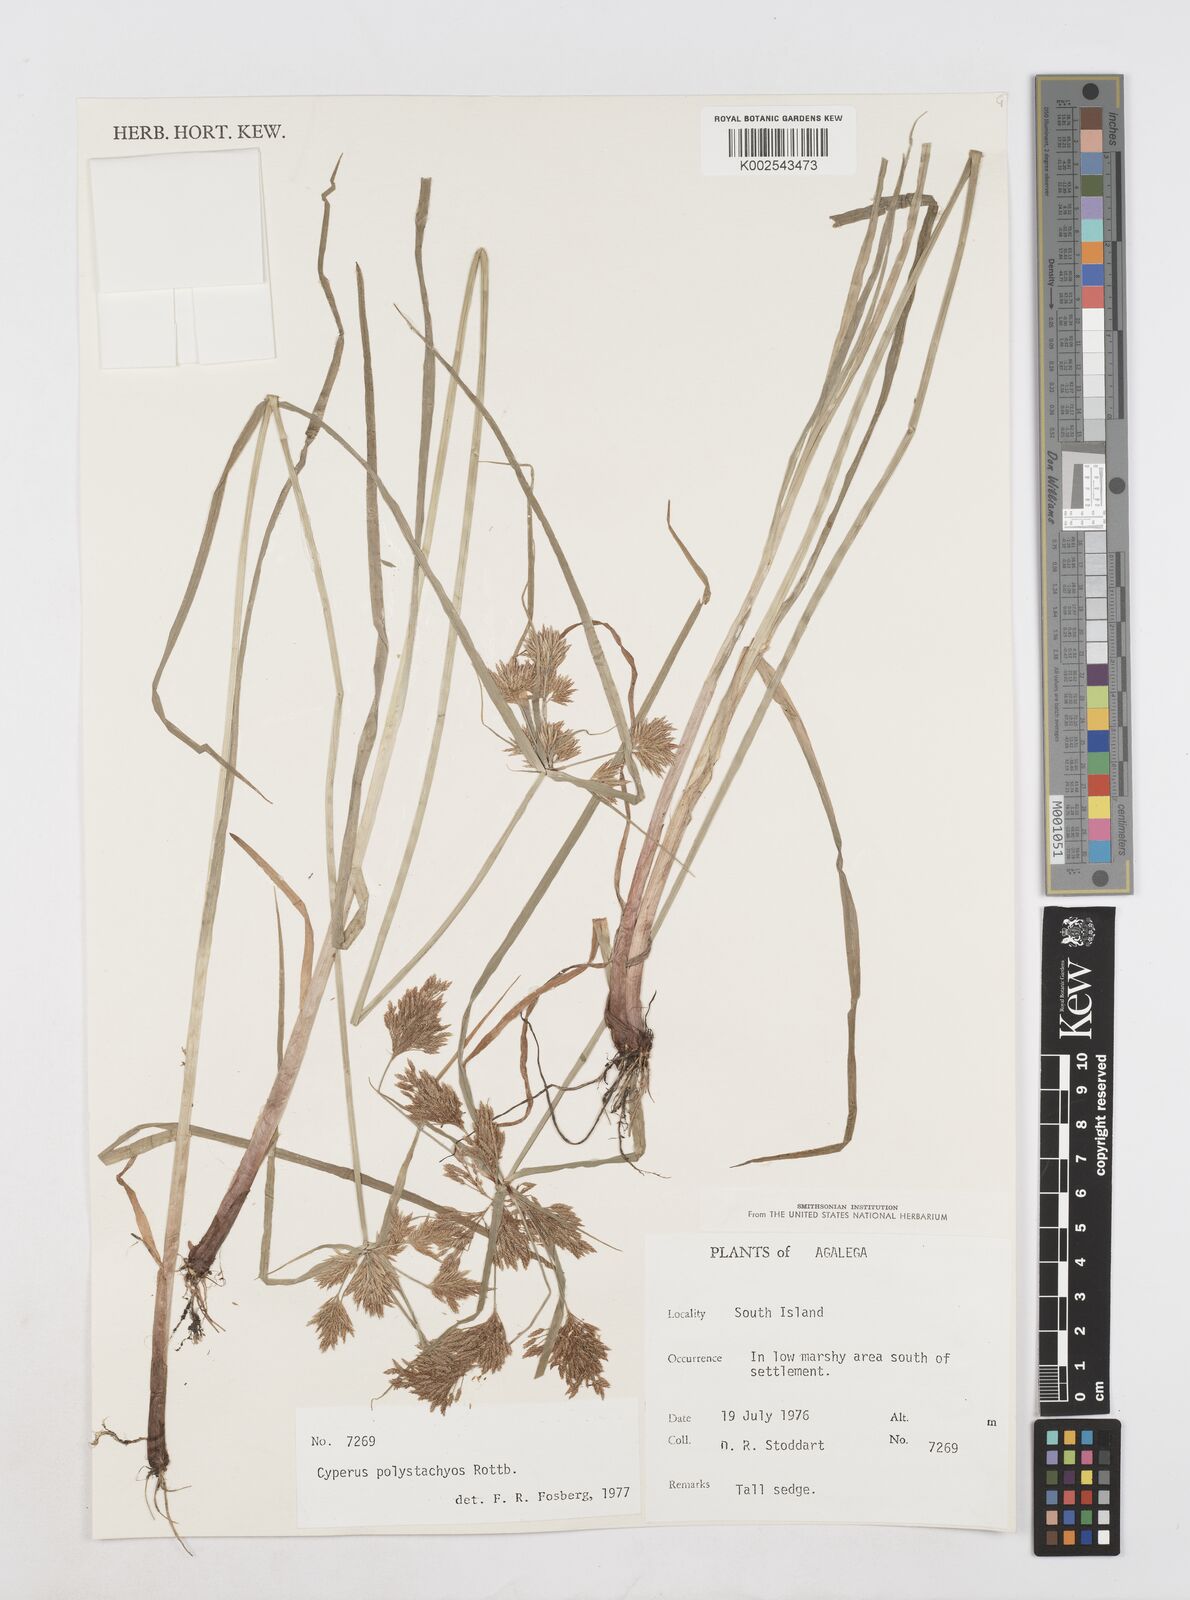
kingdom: Plantae
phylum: Tracheophyta
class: Liliopsida
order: Poales
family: Cyperaceae
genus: Cyperus
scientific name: Cyperus polystachyos
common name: Bunchy flat sedge
